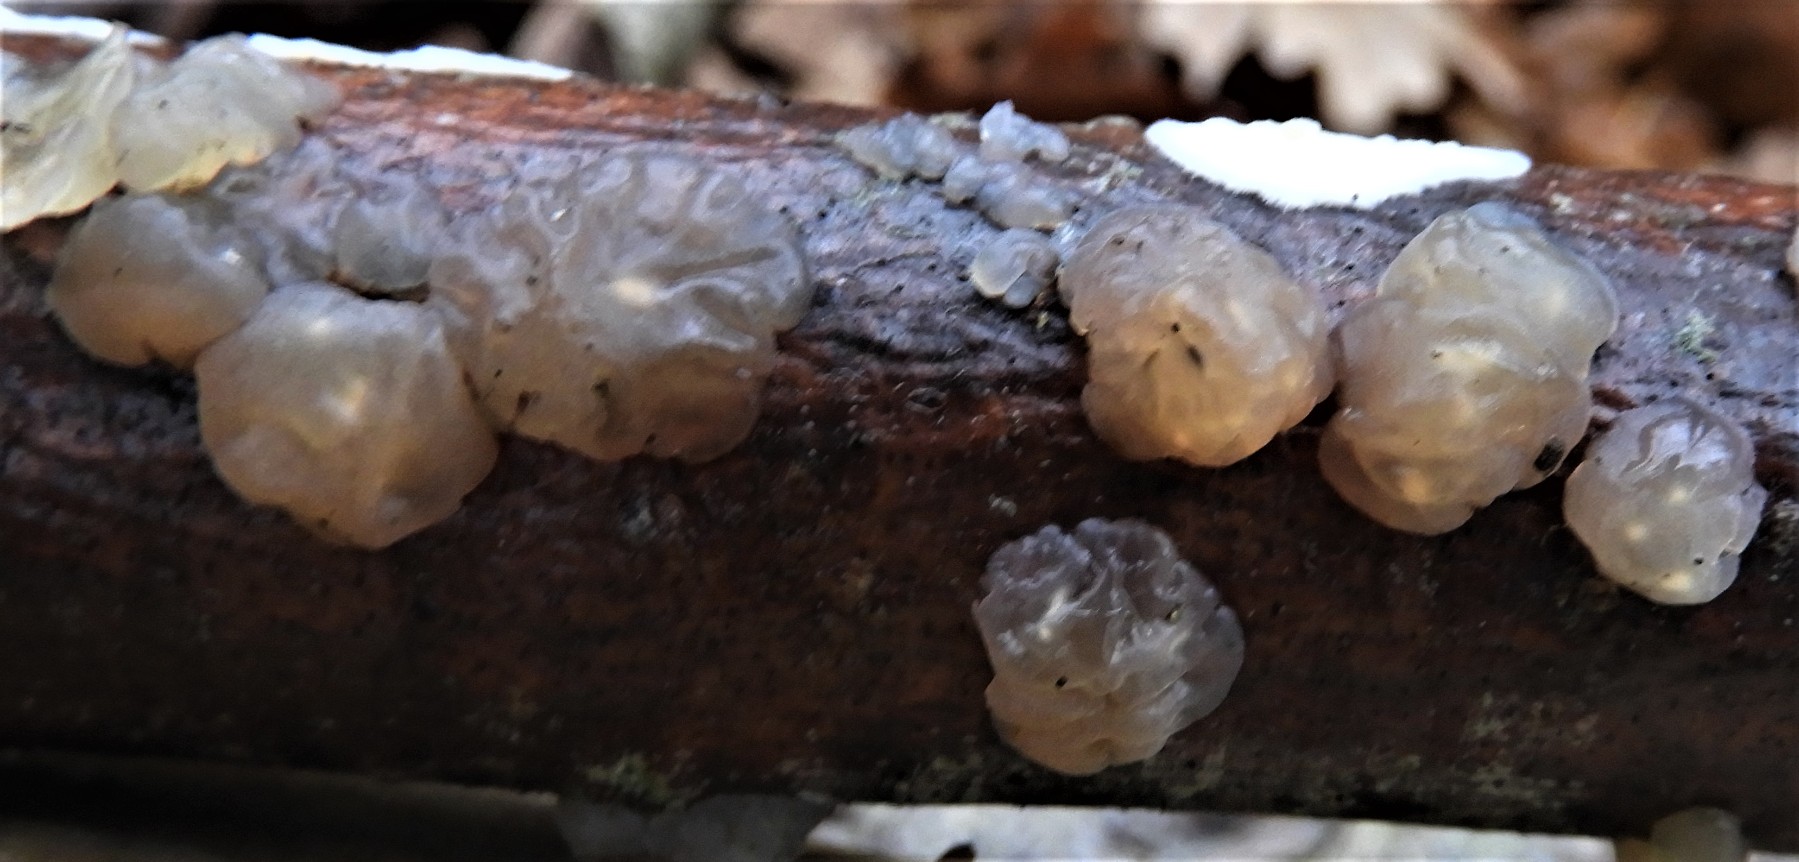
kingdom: Fungi
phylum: Basidiomycota
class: Agaricomycetes
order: Auriculariales
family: Hyaloriaceae
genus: Myxarium
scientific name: Myxarium nucleatum
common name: klar bævretop
